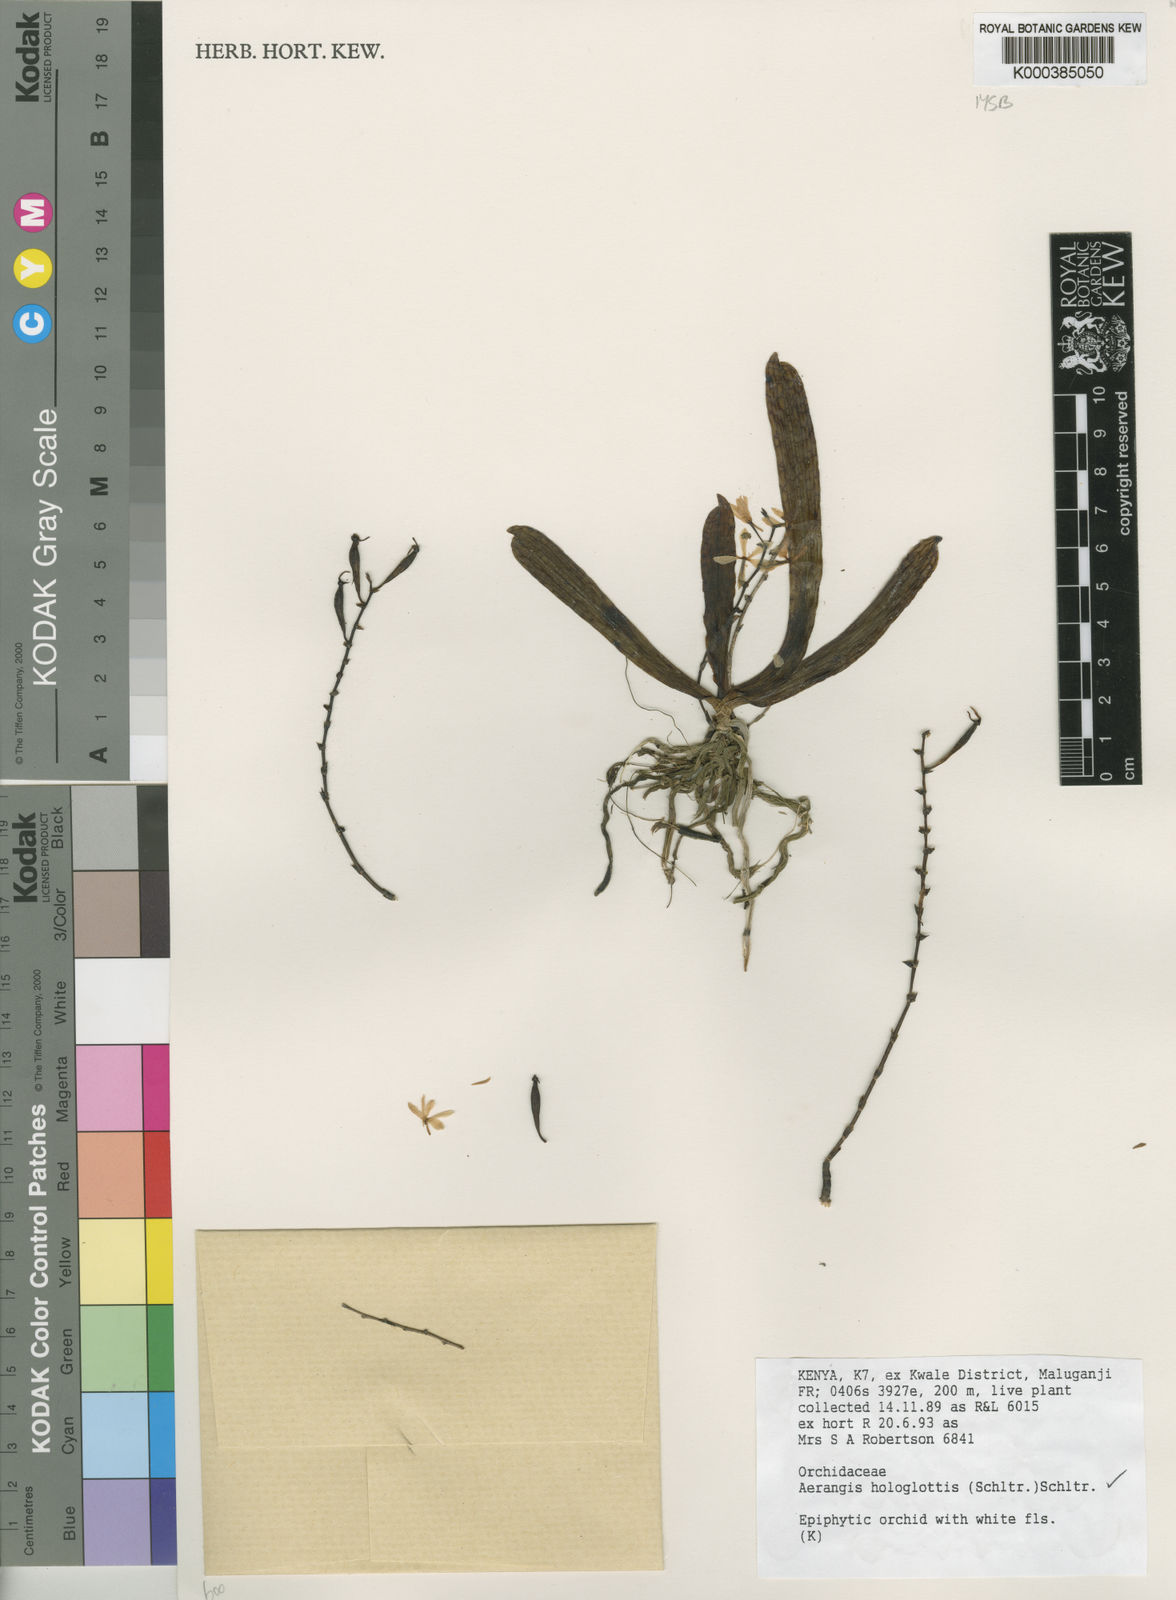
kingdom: Plantae
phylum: Tracheophyta
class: Liliopsida
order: Asparagales
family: Orchidaceae
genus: Aerangis
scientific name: Aerangis hologlottis
